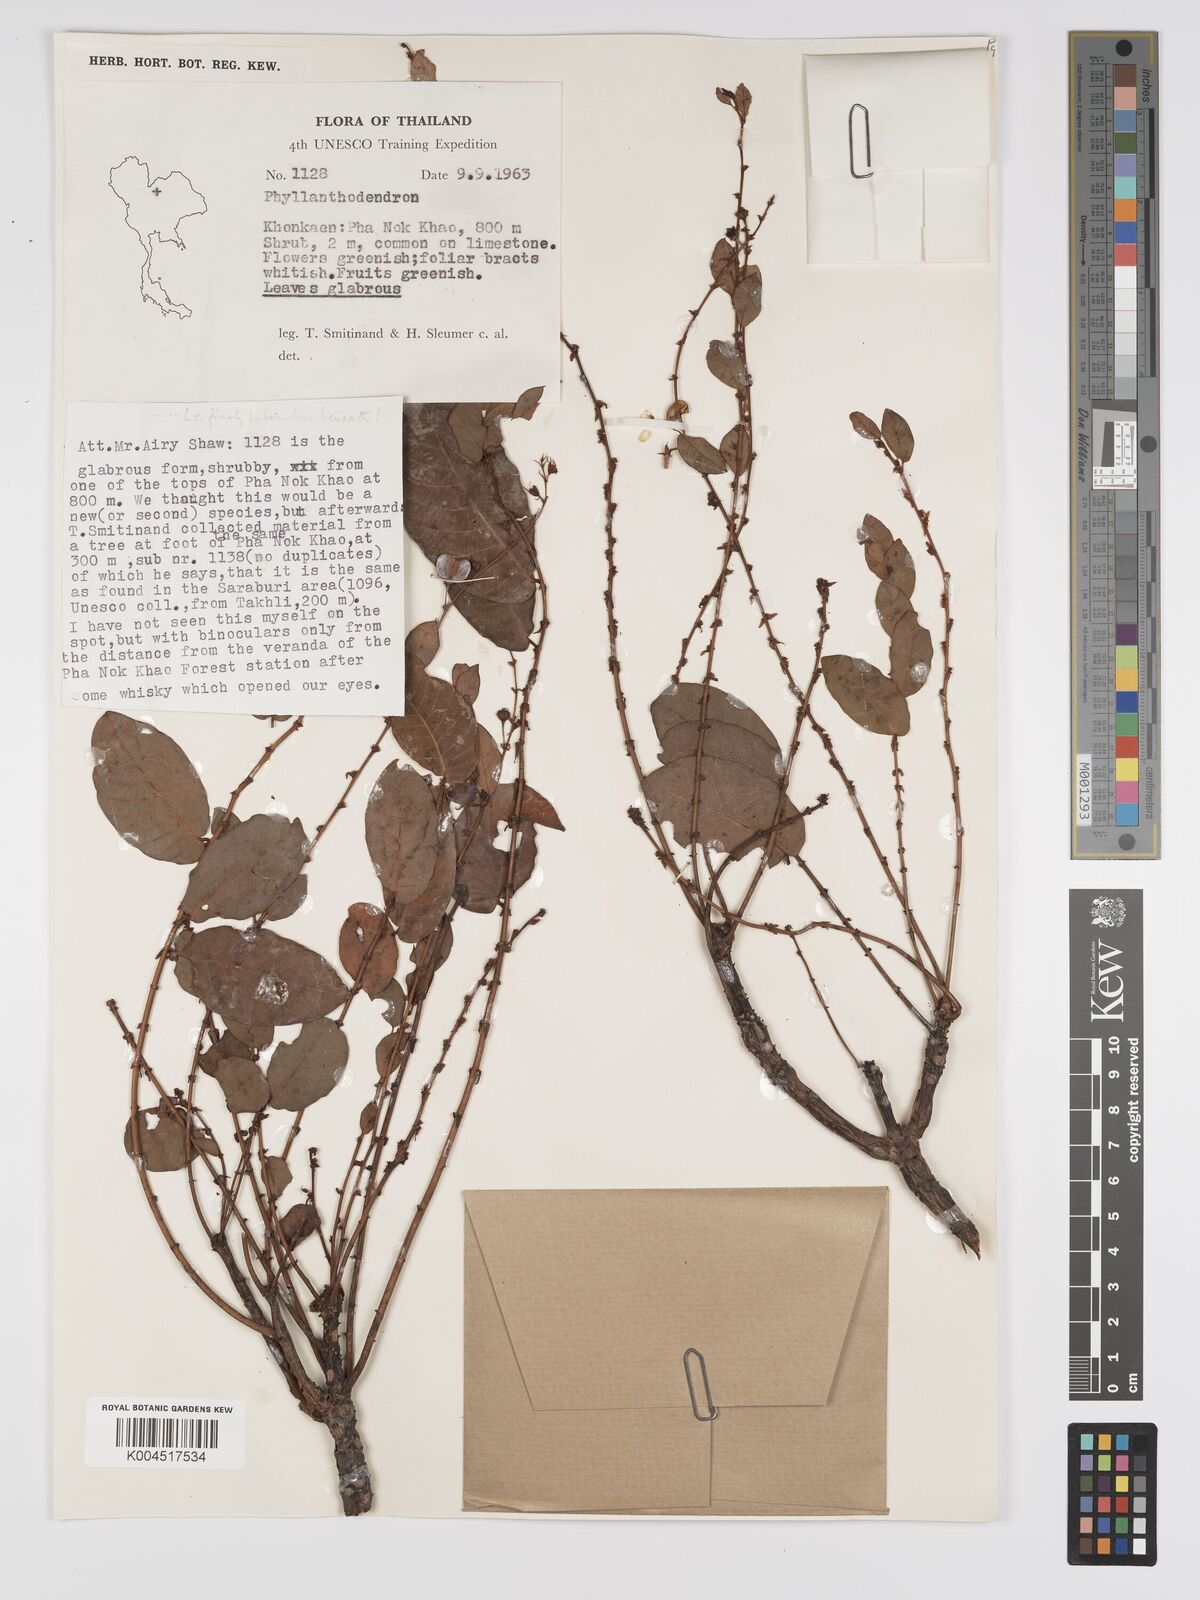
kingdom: Plantae
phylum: Tracheophyta
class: Magnoliopsida
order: Malpighiales
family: Phyllanthaceae
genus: Phyllanthus
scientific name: Phyllanthus mirabilis
